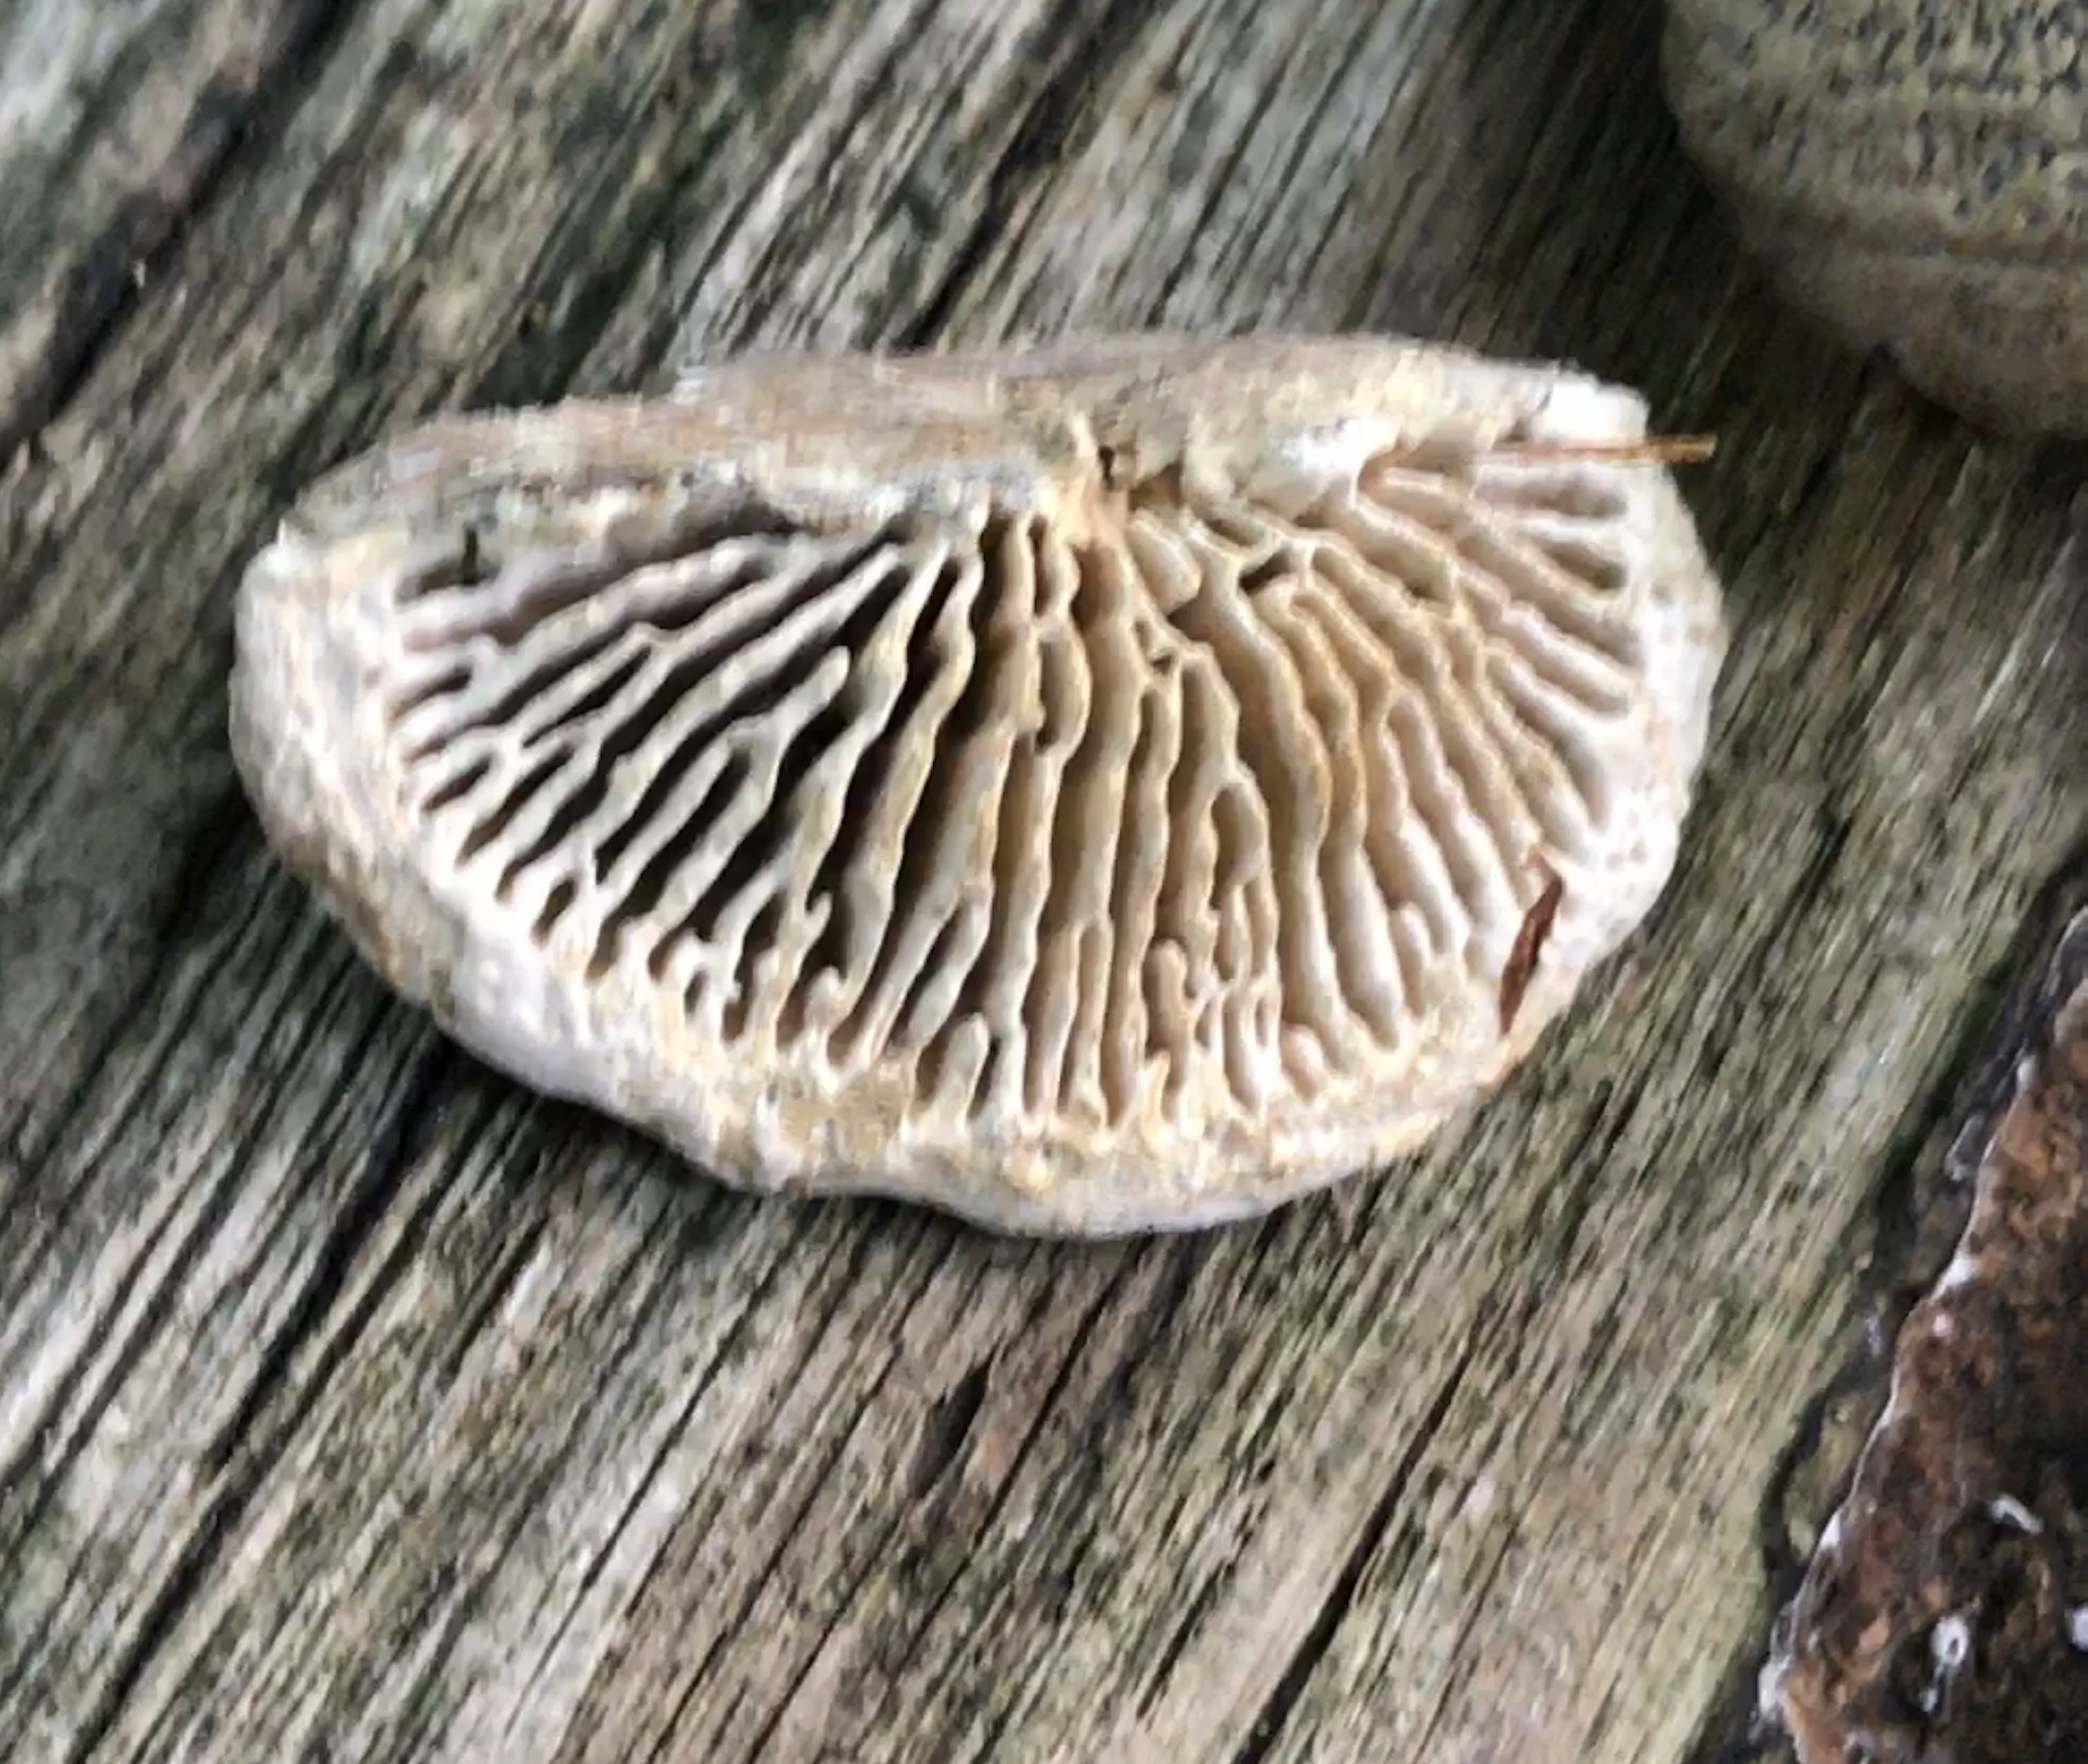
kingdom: Fungi
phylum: Basidiomycota
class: Agaricomycetes
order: Polyporales
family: Fomitopsidaceae
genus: Daedalea
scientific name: Daedalea quercina
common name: ege-labyrintsvamp
